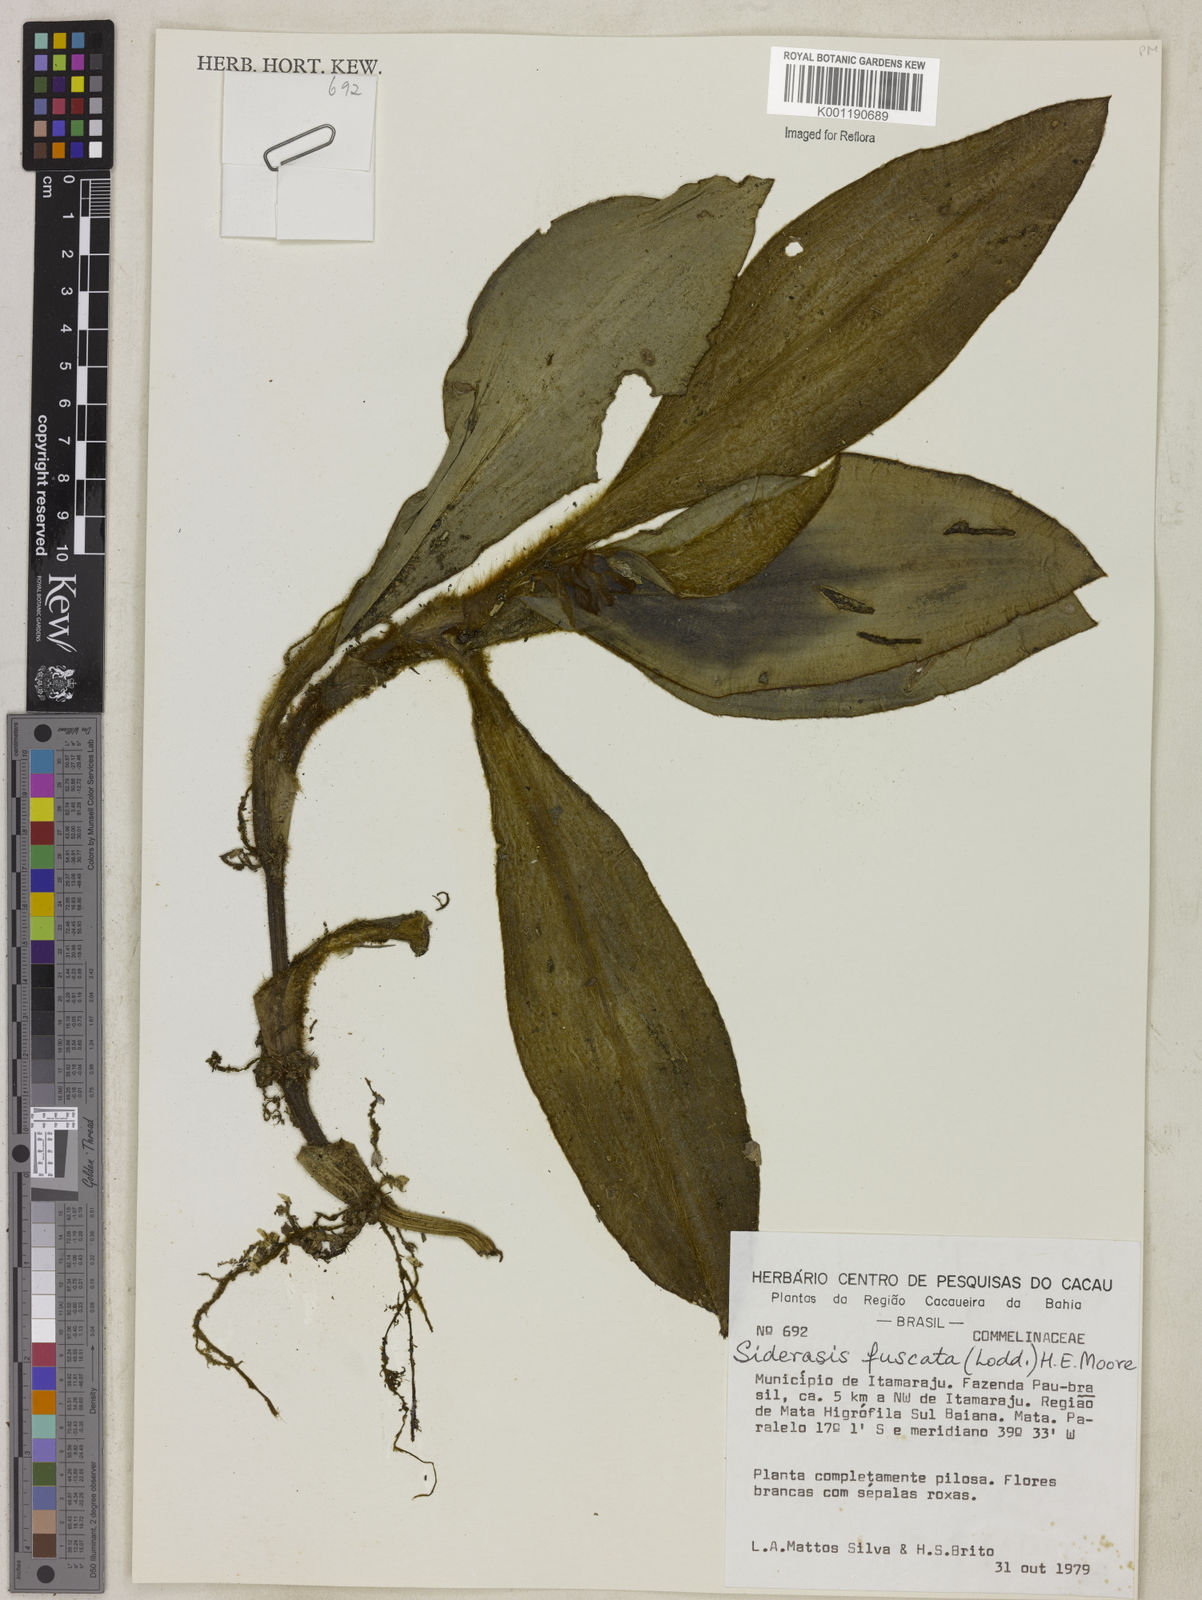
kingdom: Plantae
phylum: Tracheophyta
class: Liliopsida
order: Commelinales
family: Commelinaceae
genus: Siderasis
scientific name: Siderasis fuscata
